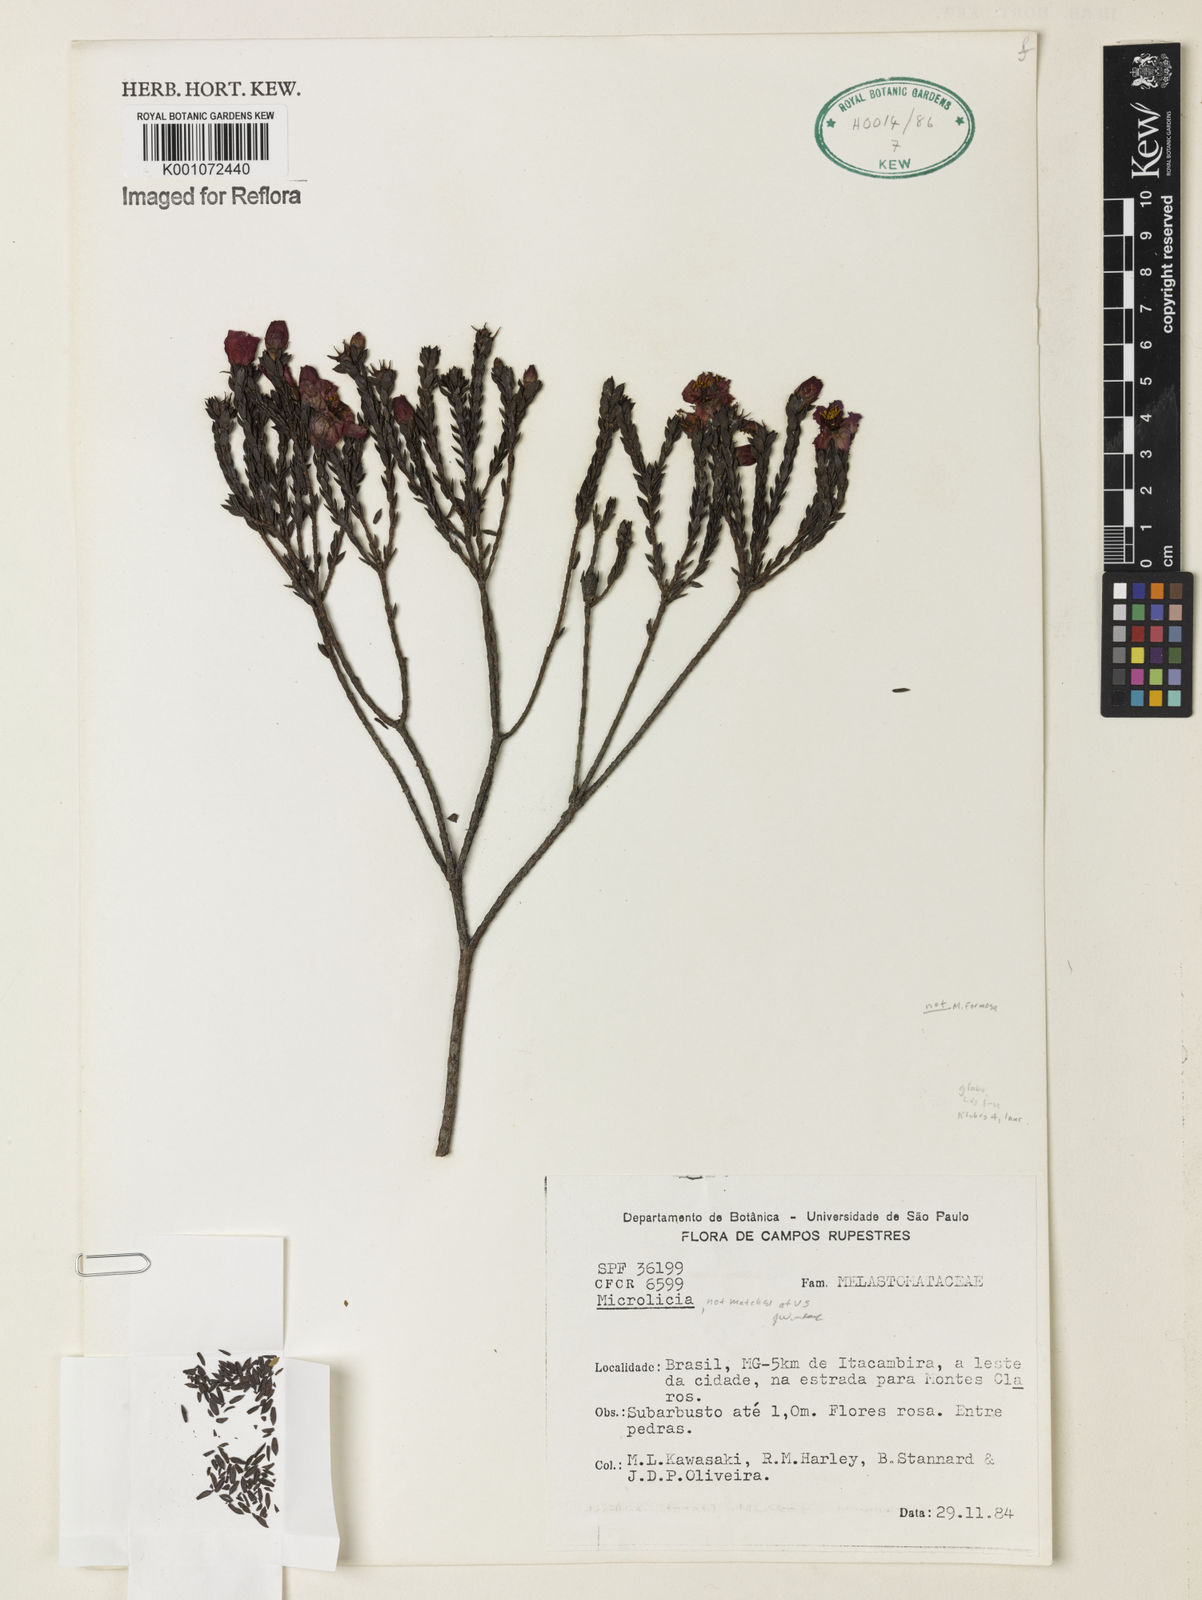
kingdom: Plantae
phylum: Tracheophyta
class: Magnoliopsida
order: Myrtales
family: Melastomataceae
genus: Microlicia
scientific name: Microlicia
